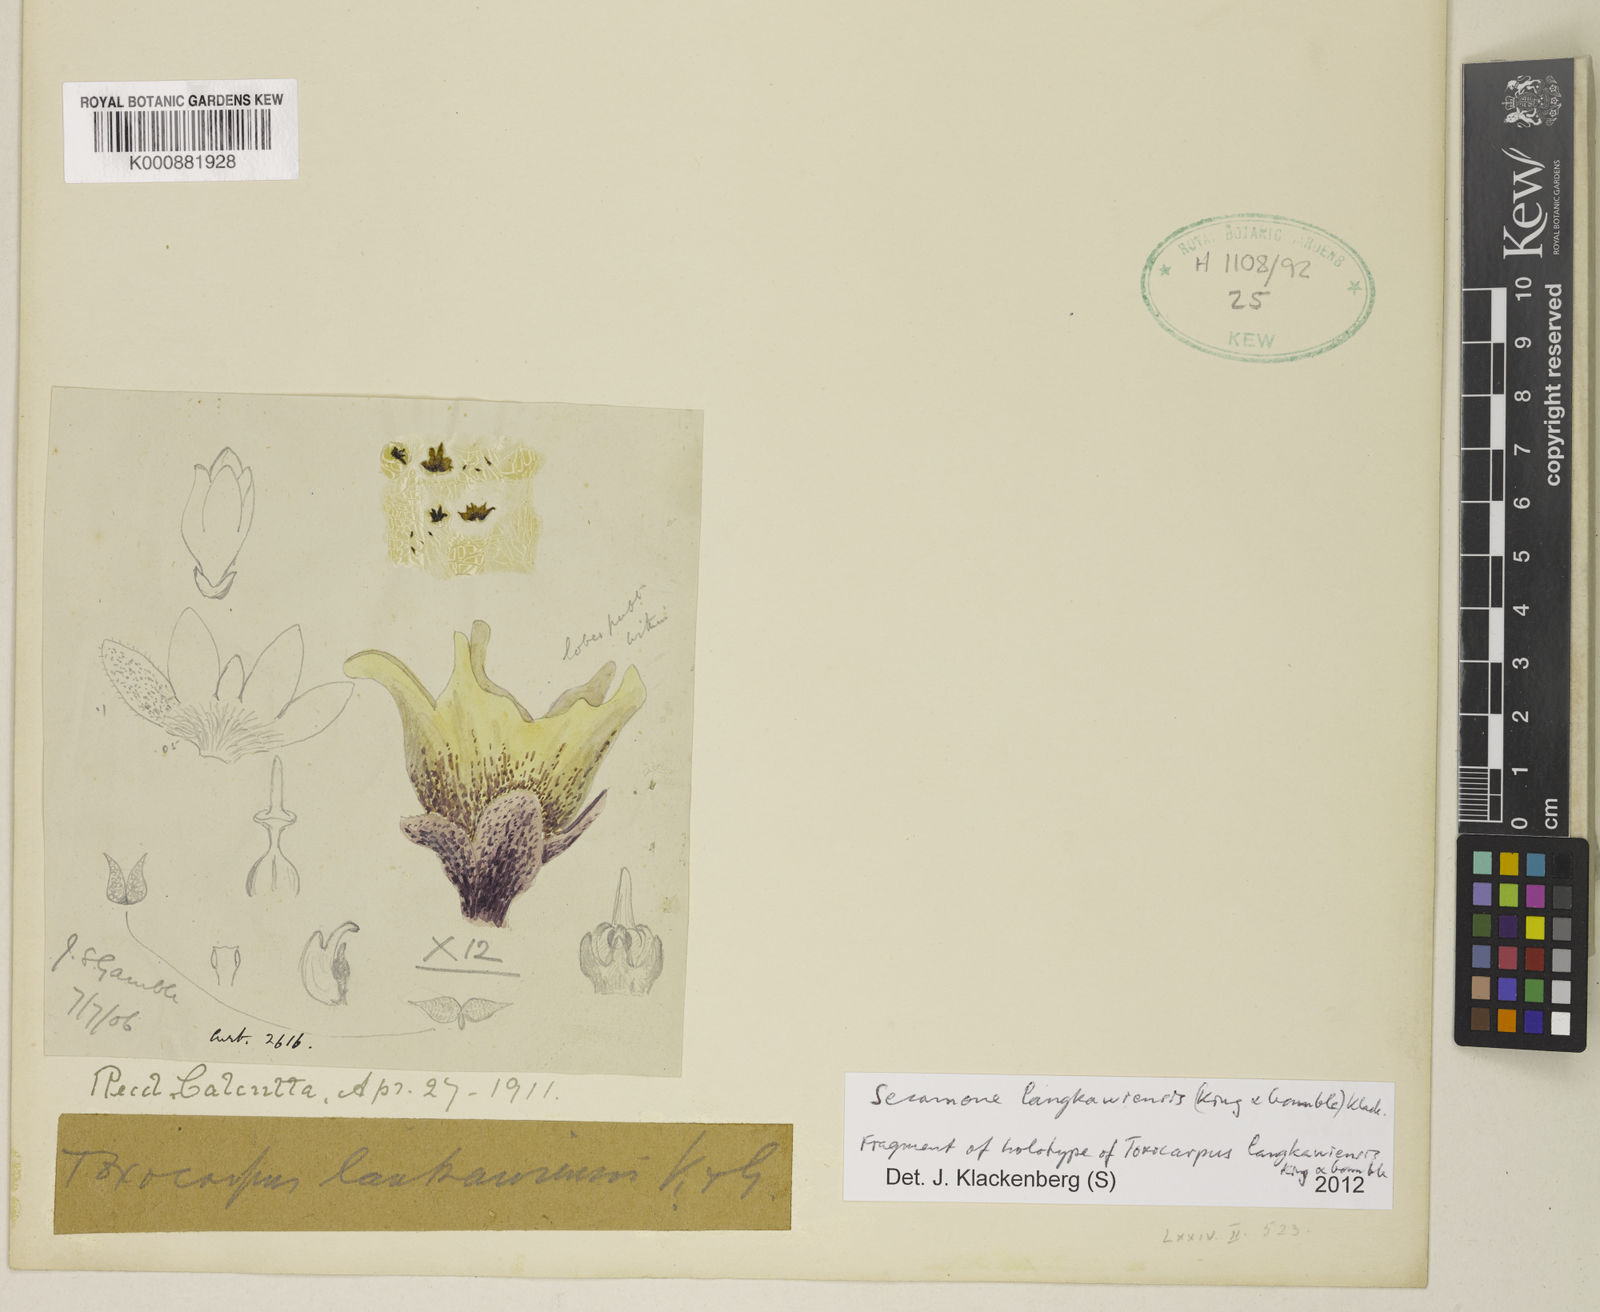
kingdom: Plantae
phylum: Tracheophyta
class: Magnoliopsida
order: Gentianales
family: Apocynaceae
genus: Secamone
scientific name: Secamone
